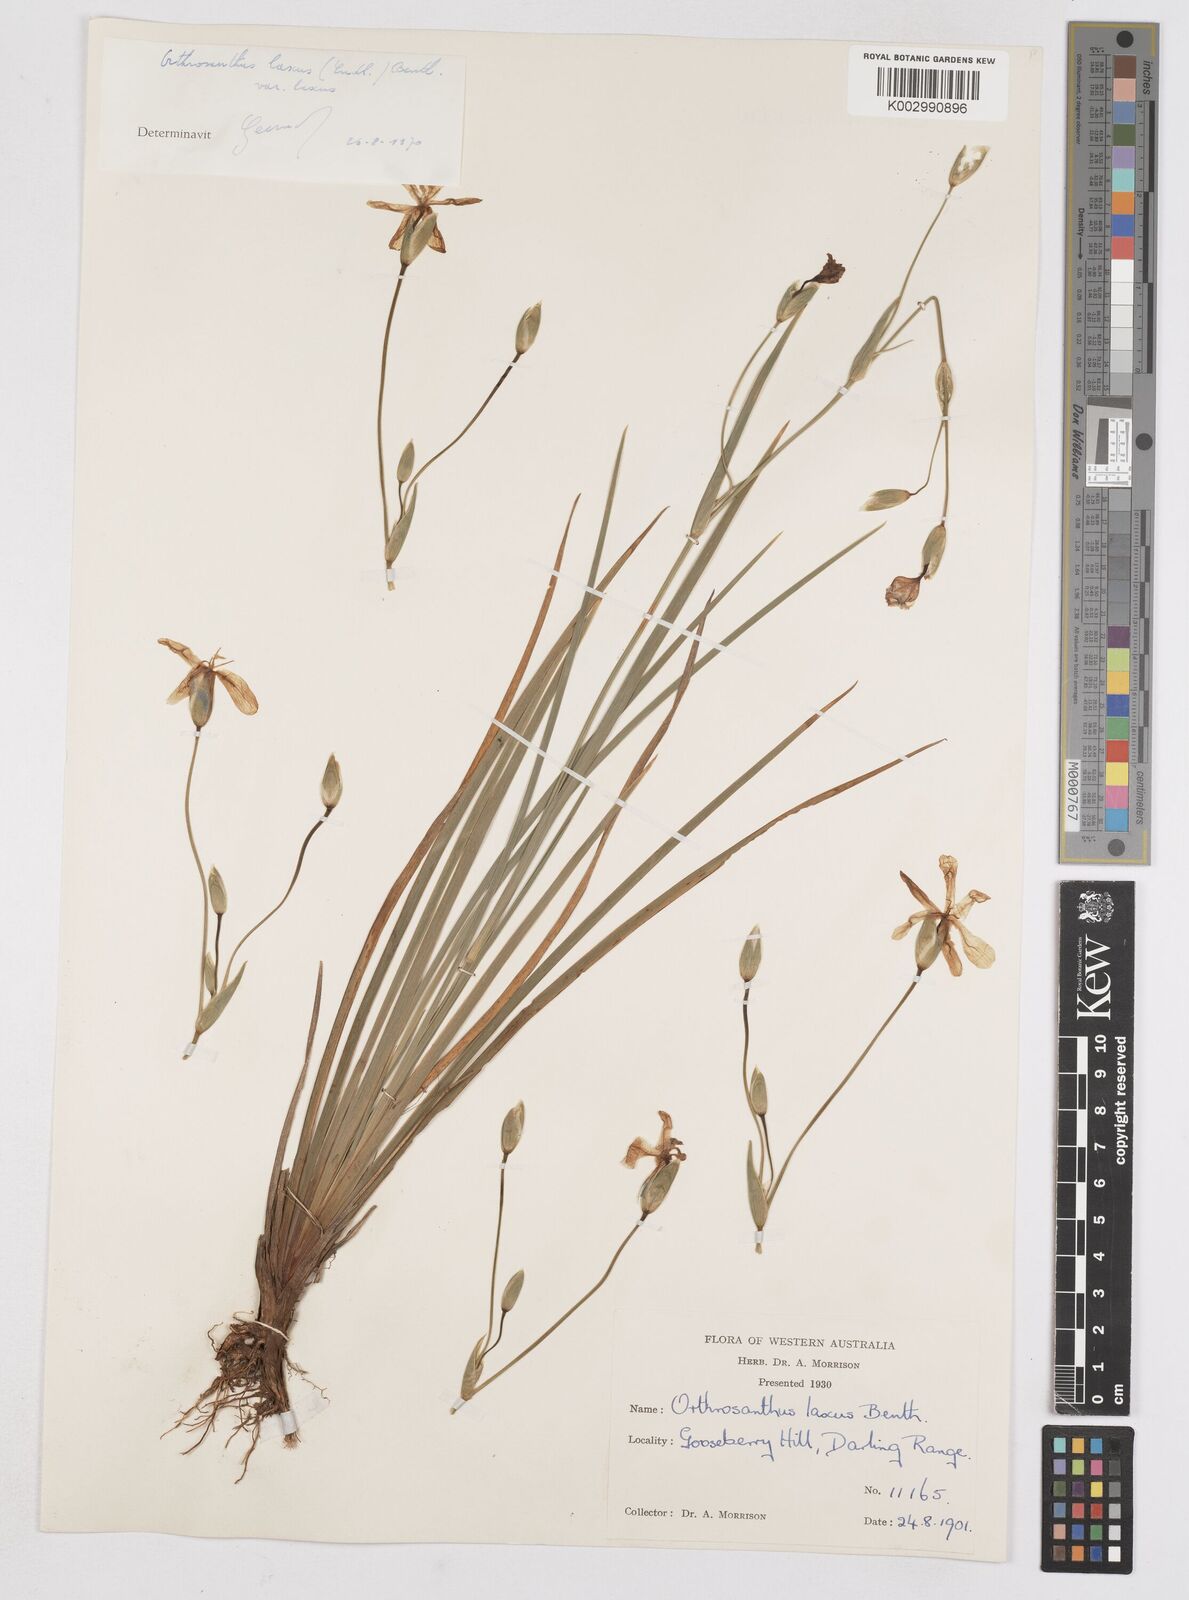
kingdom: Plantae
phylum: Tracheophyta
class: Liliopsida
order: Asparagales
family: Iridaceae
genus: Orthrosanthus
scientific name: Orthrosanthus laxus
